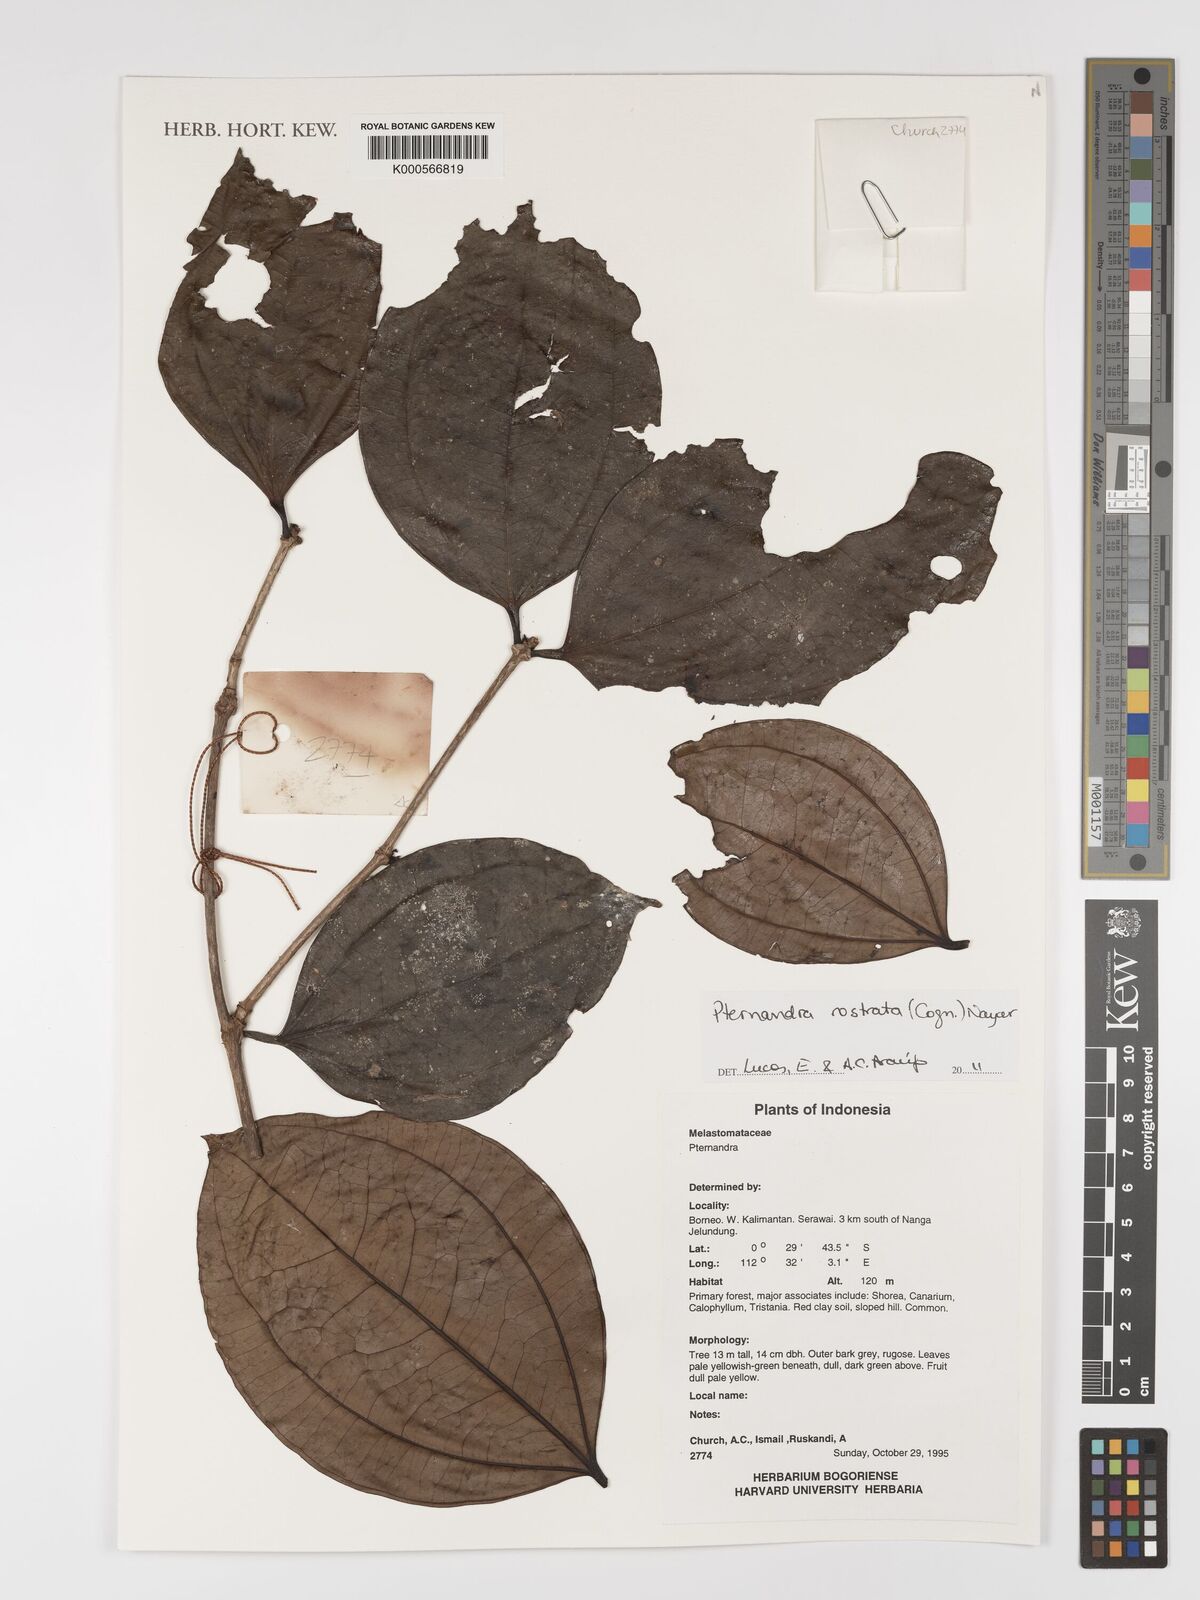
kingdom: Plantae
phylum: Tracheophyta
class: Magnoliopsida
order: Myrtales
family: Melastomataceae
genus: Pternandra
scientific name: Pternandra rostrata
